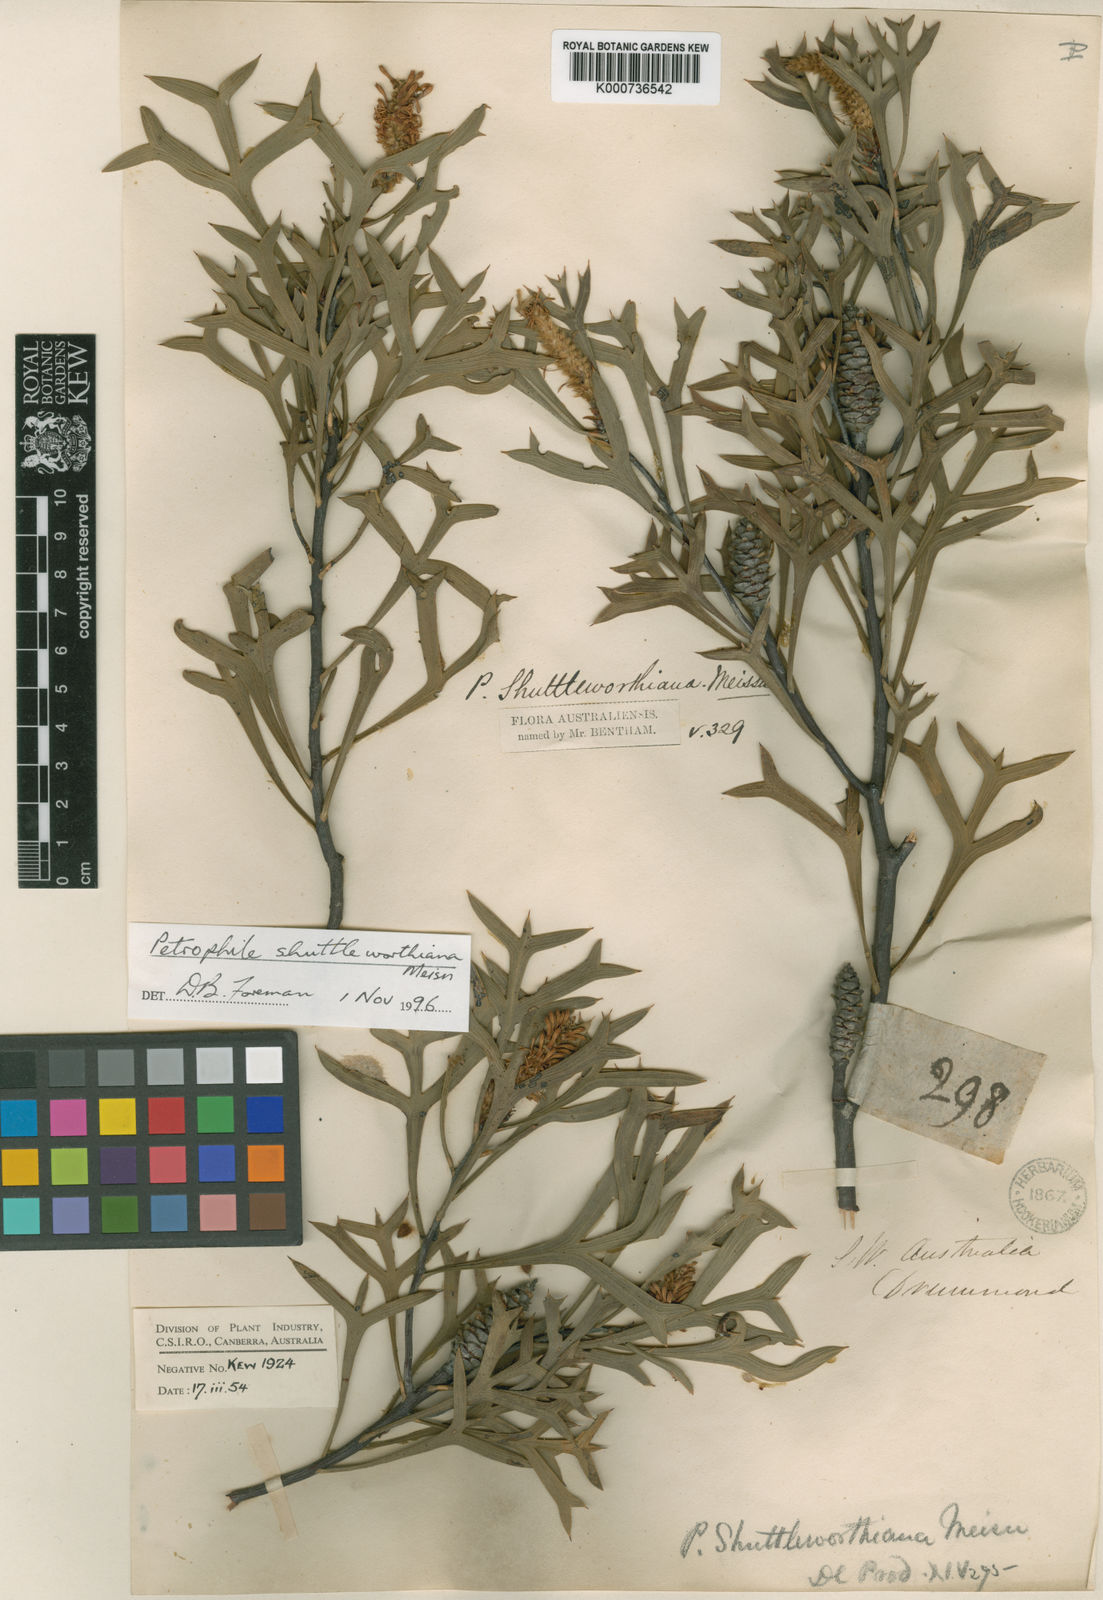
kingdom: Plantae
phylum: Tracheophyta
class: Magnoliopsida
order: Proteales
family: Proteaceae
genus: Petrophile
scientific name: Petrophile shuttleworthiana
